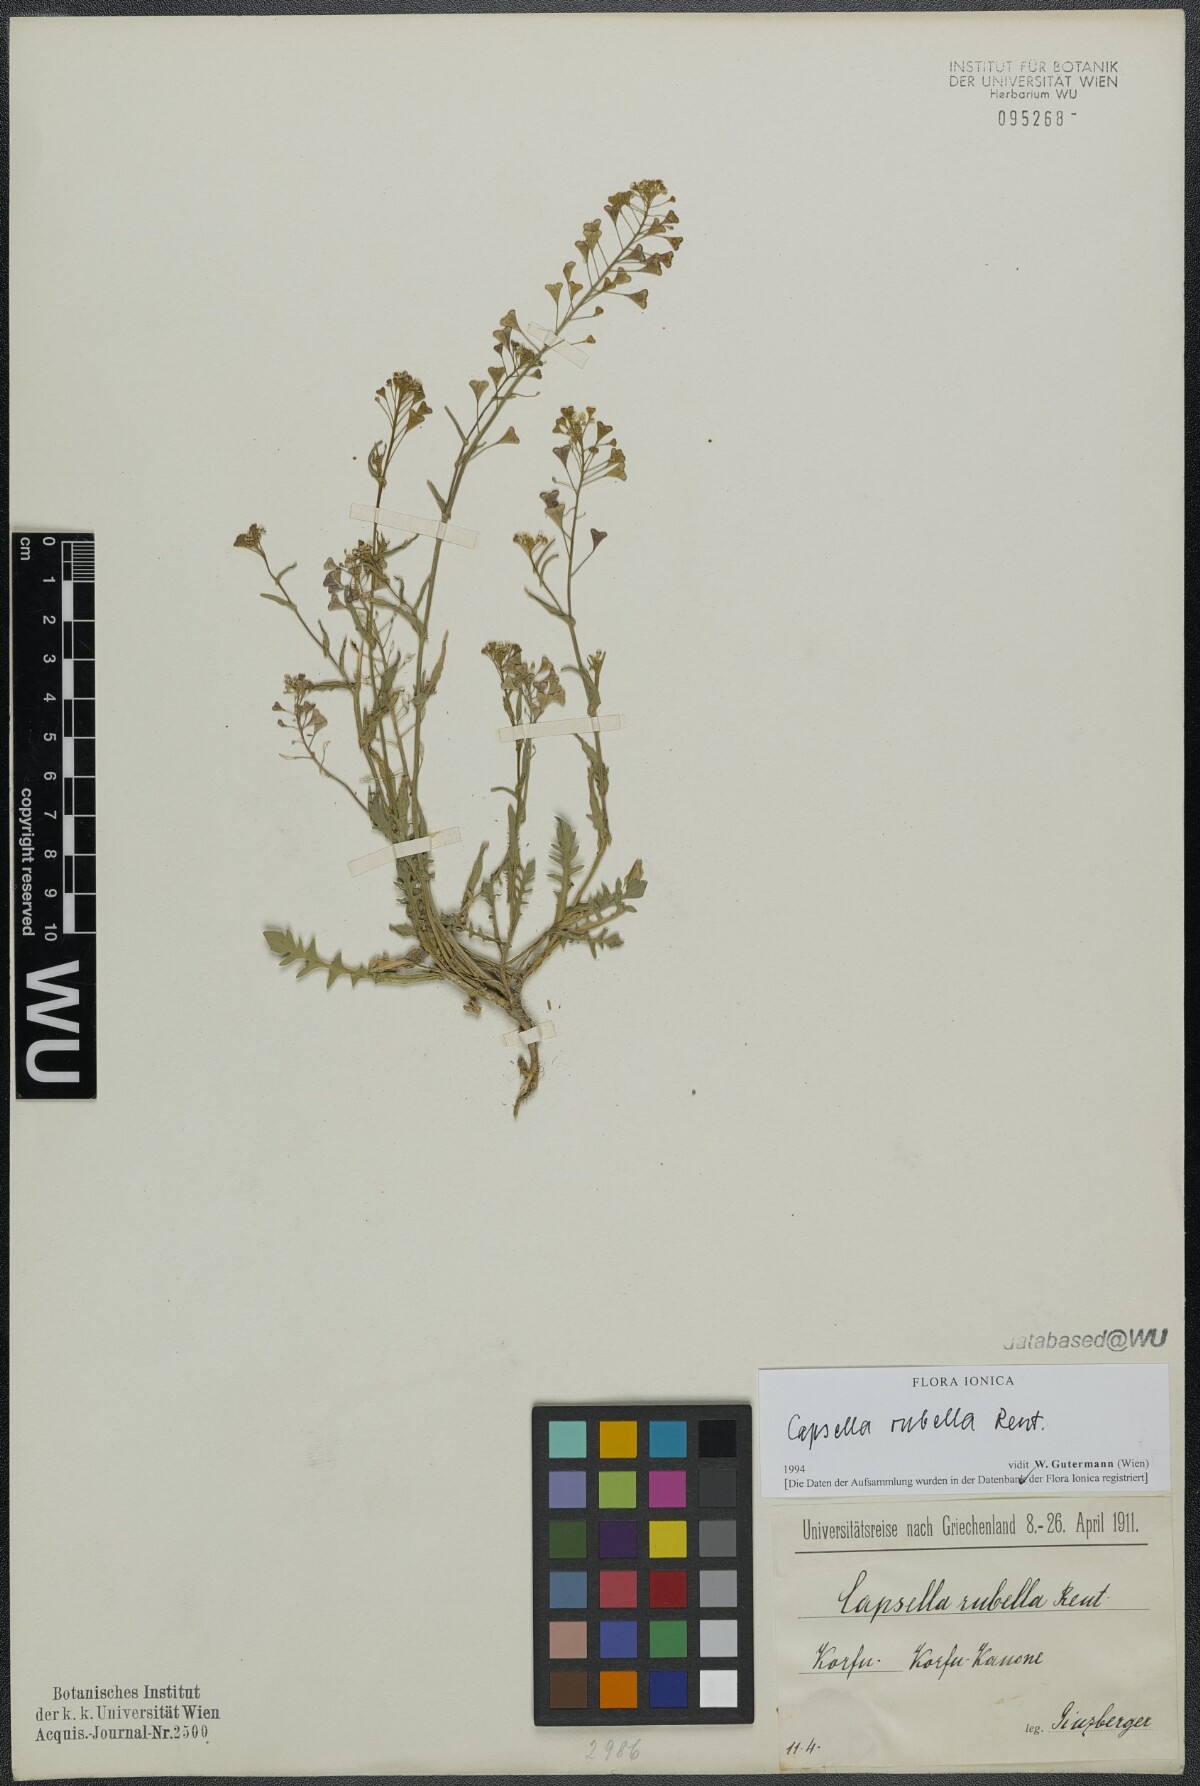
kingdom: Plantae
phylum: Tracheophyta
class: Magnoliopsida
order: Brassicales
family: Brassicaceae
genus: Capsella
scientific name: Capsella rubella
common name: Pink shepherd's-purse
